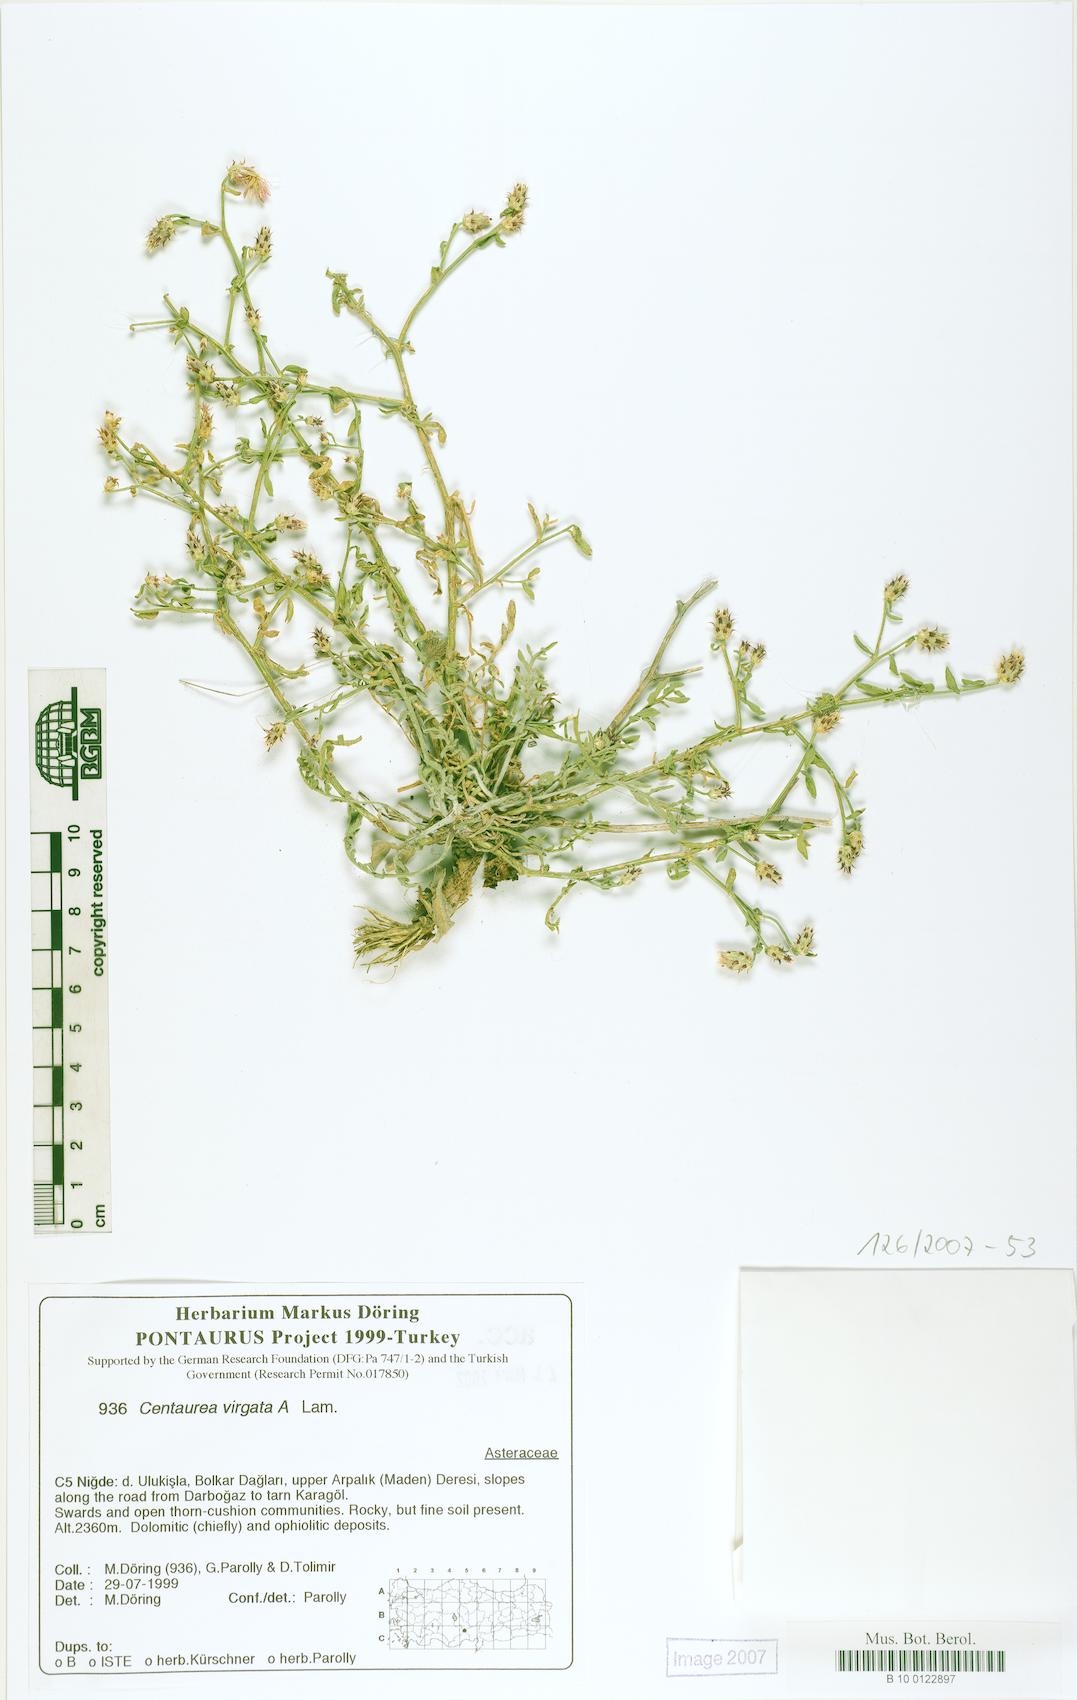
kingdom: Plantae
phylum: Tracheophyta
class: Magnoliopsida
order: Asterales
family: Asteraceae
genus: Centaurea
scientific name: Centaurea virgata
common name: Squarrose knapweed
